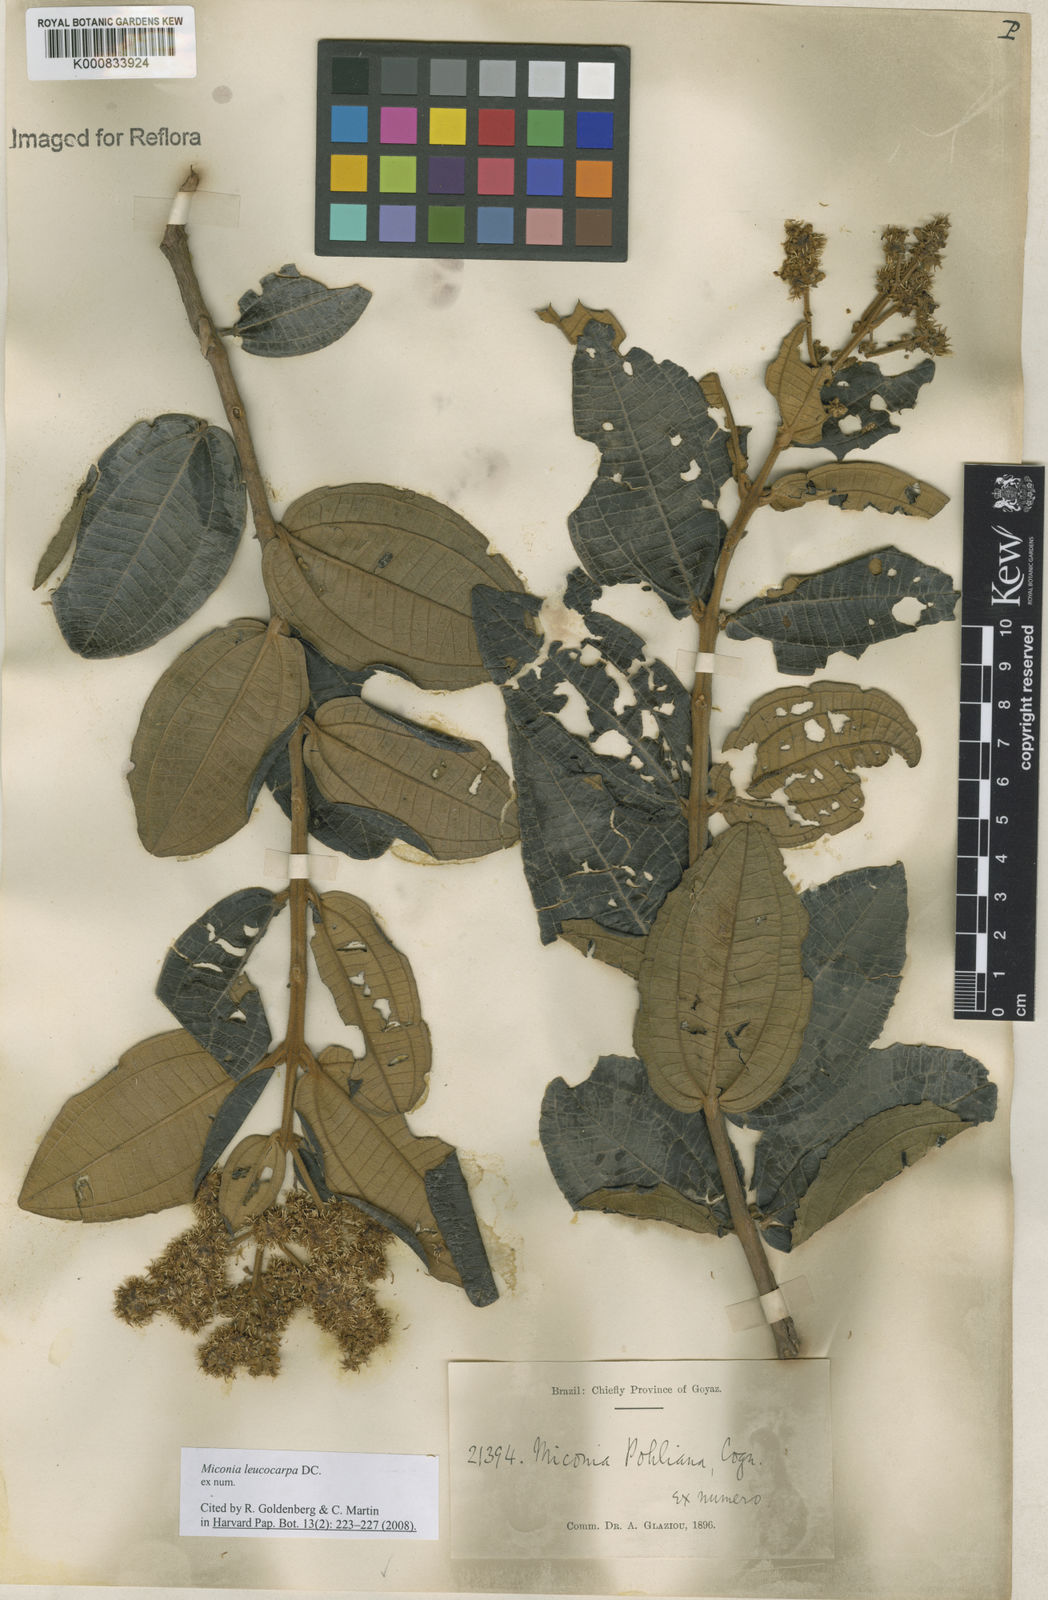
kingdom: Plantae
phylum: Tracheophyta
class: Magnoliopsida
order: Myrtales
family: Melastomataceae
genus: Miconia
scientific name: Miconia leucocarpa
